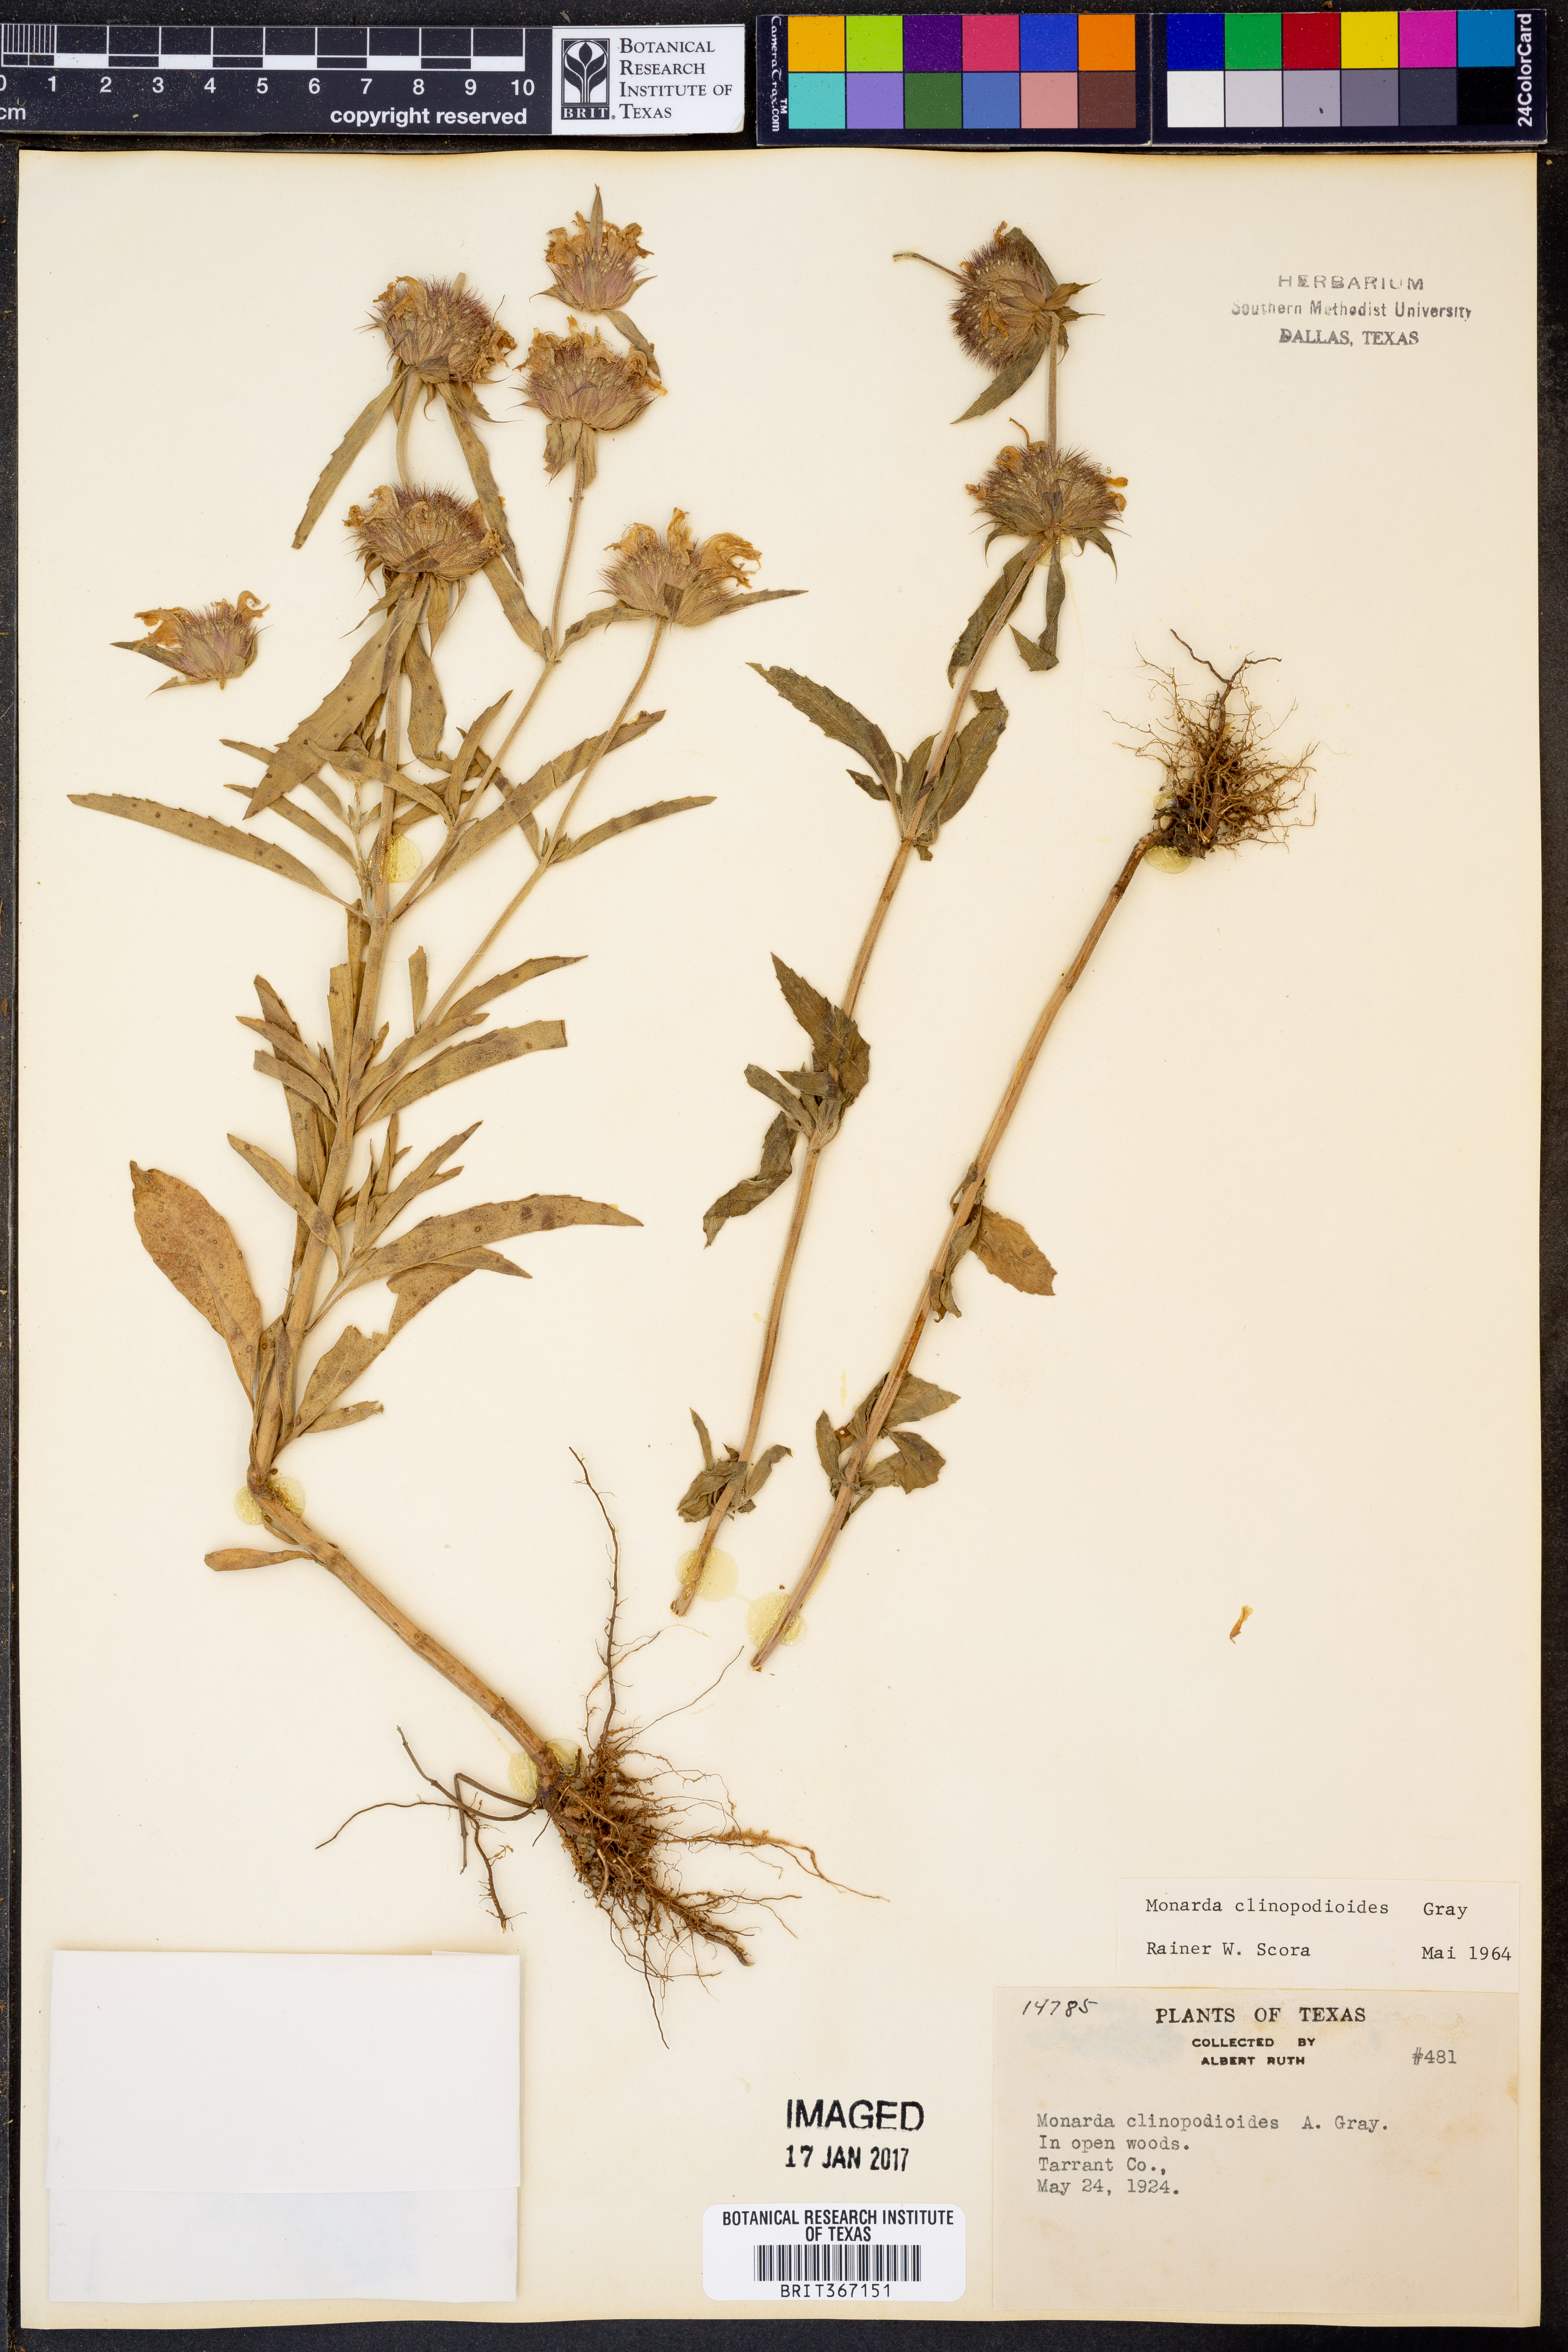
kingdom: Plantae
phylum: Tracheophyta
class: Magnoliopsida
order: Lamiales
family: Lamiaceae
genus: Monarda
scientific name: Monarda clinopodioides
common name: Basil beebalm
